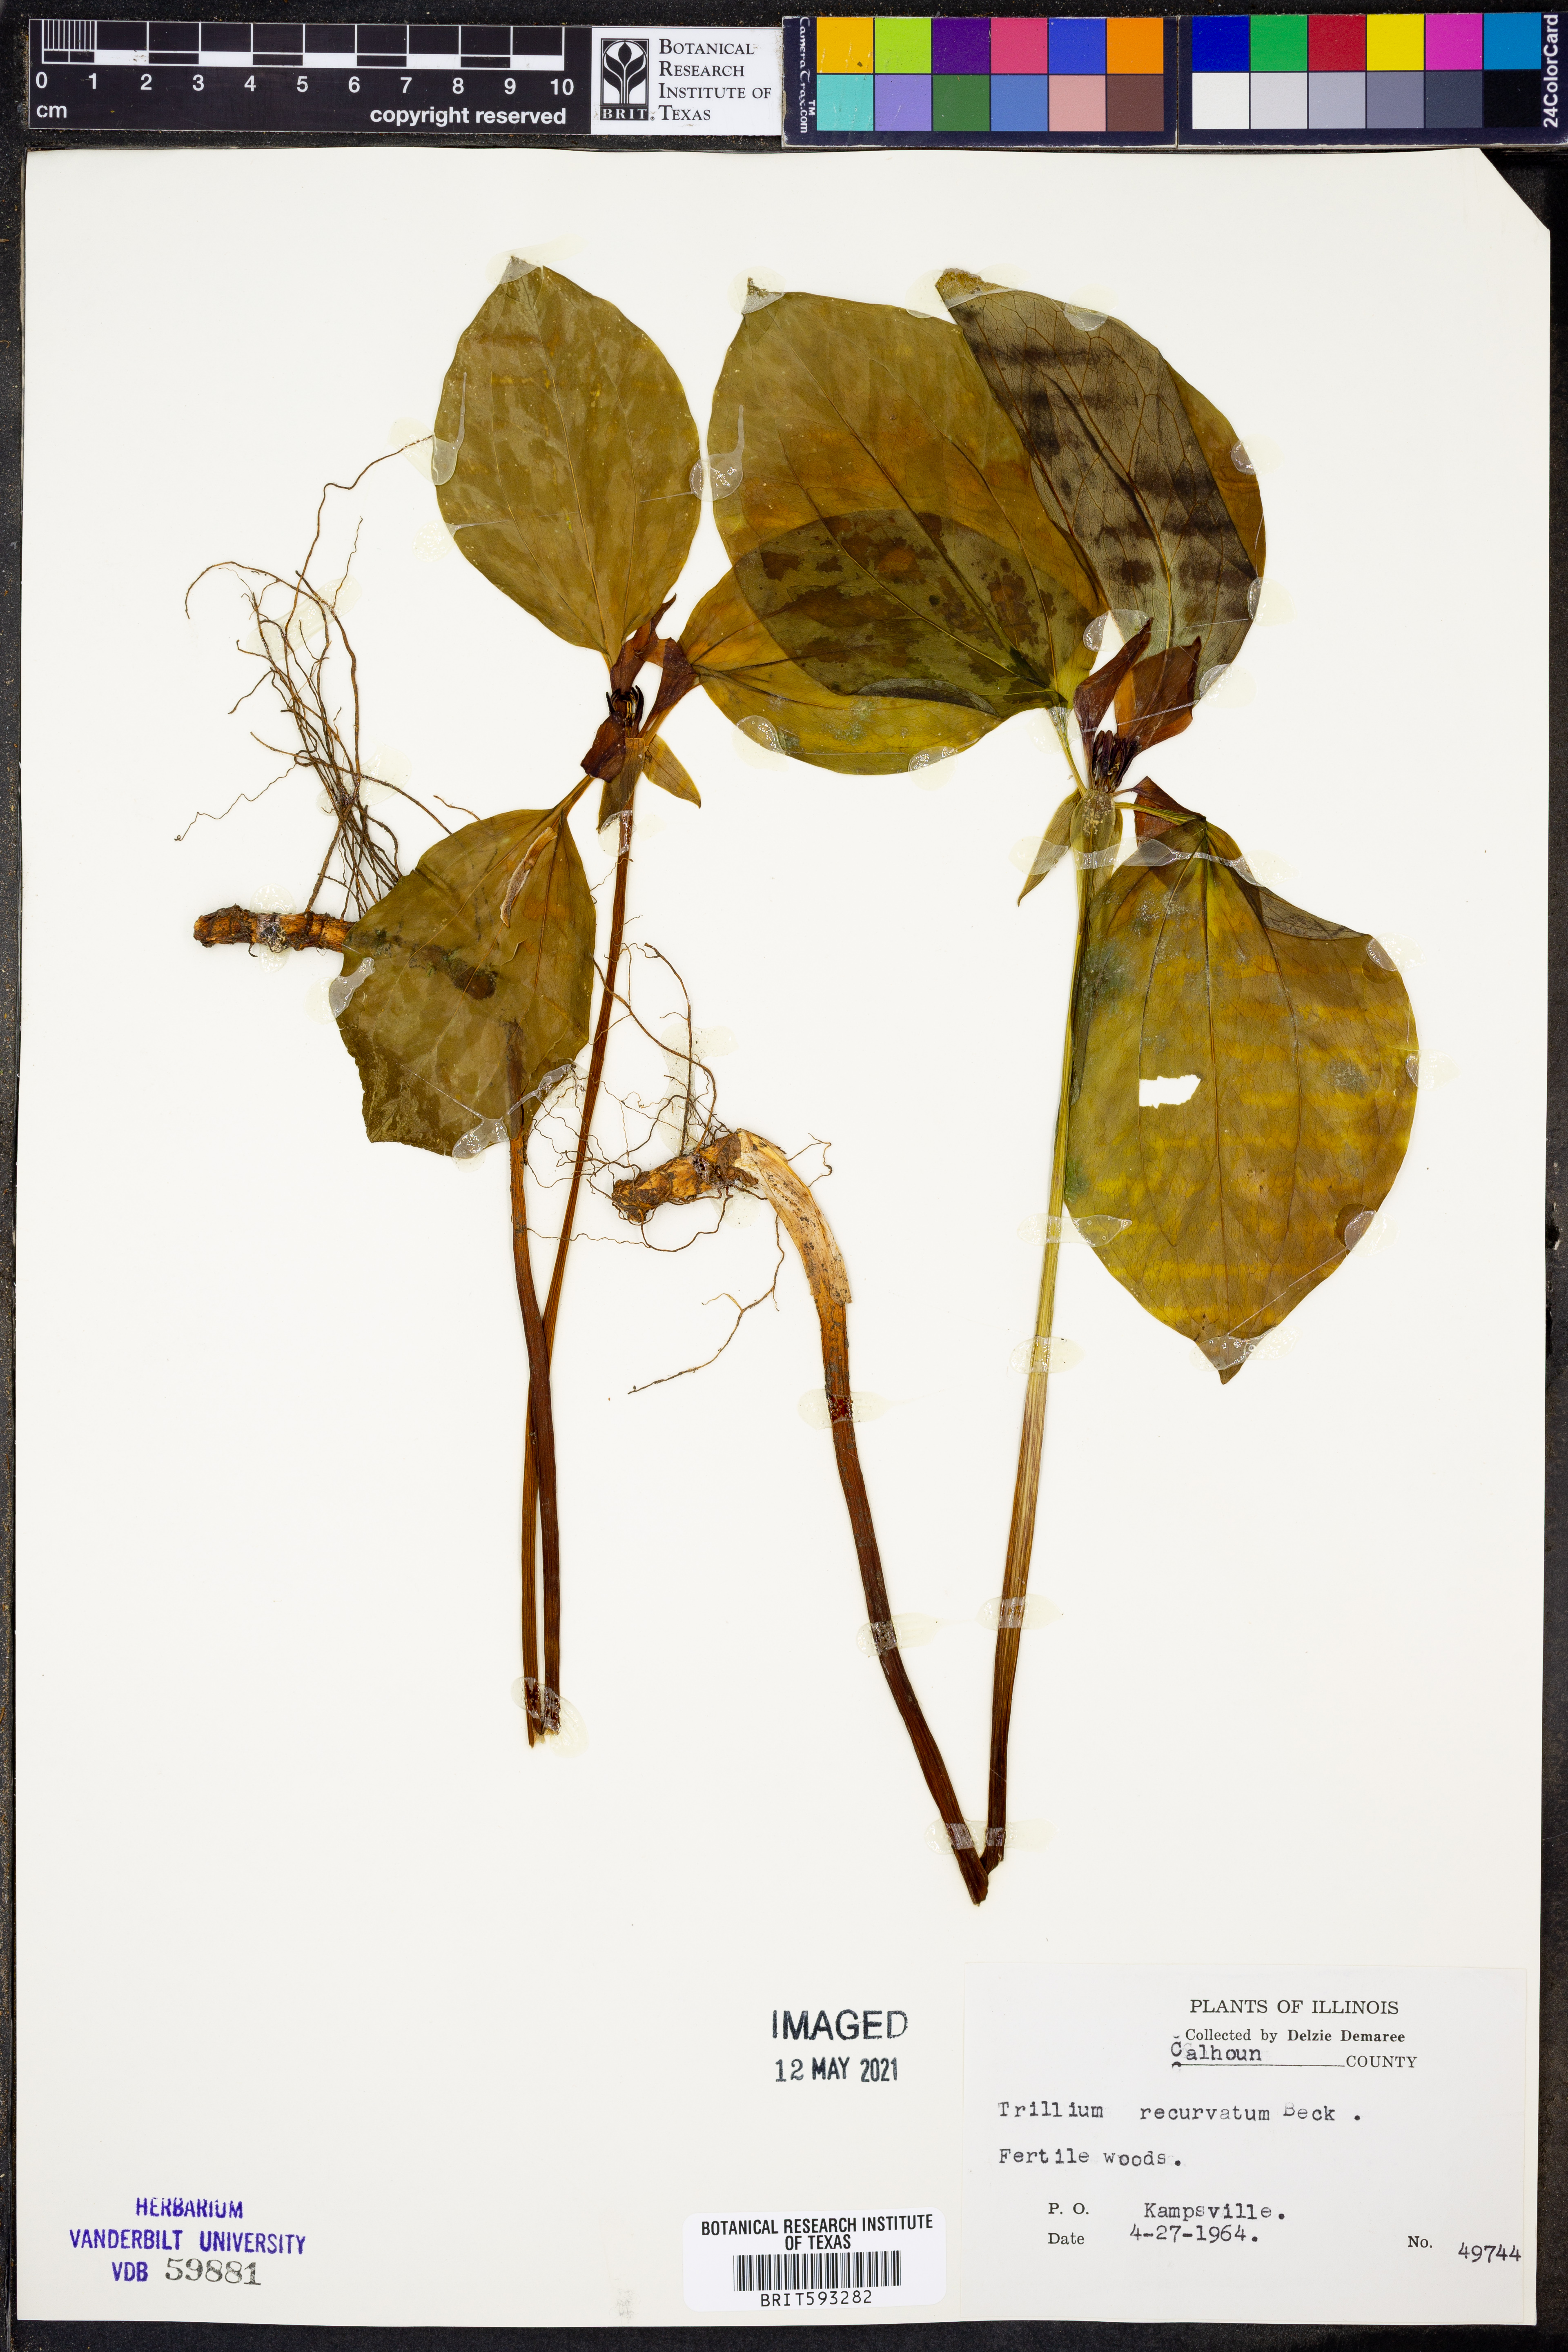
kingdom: Plantae
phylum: Tracheophyta
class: Liliopsida
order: Liliales
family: Melanthiaceae
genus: Trillium
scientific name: Trillium recurvatum
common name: Bloody butcher
